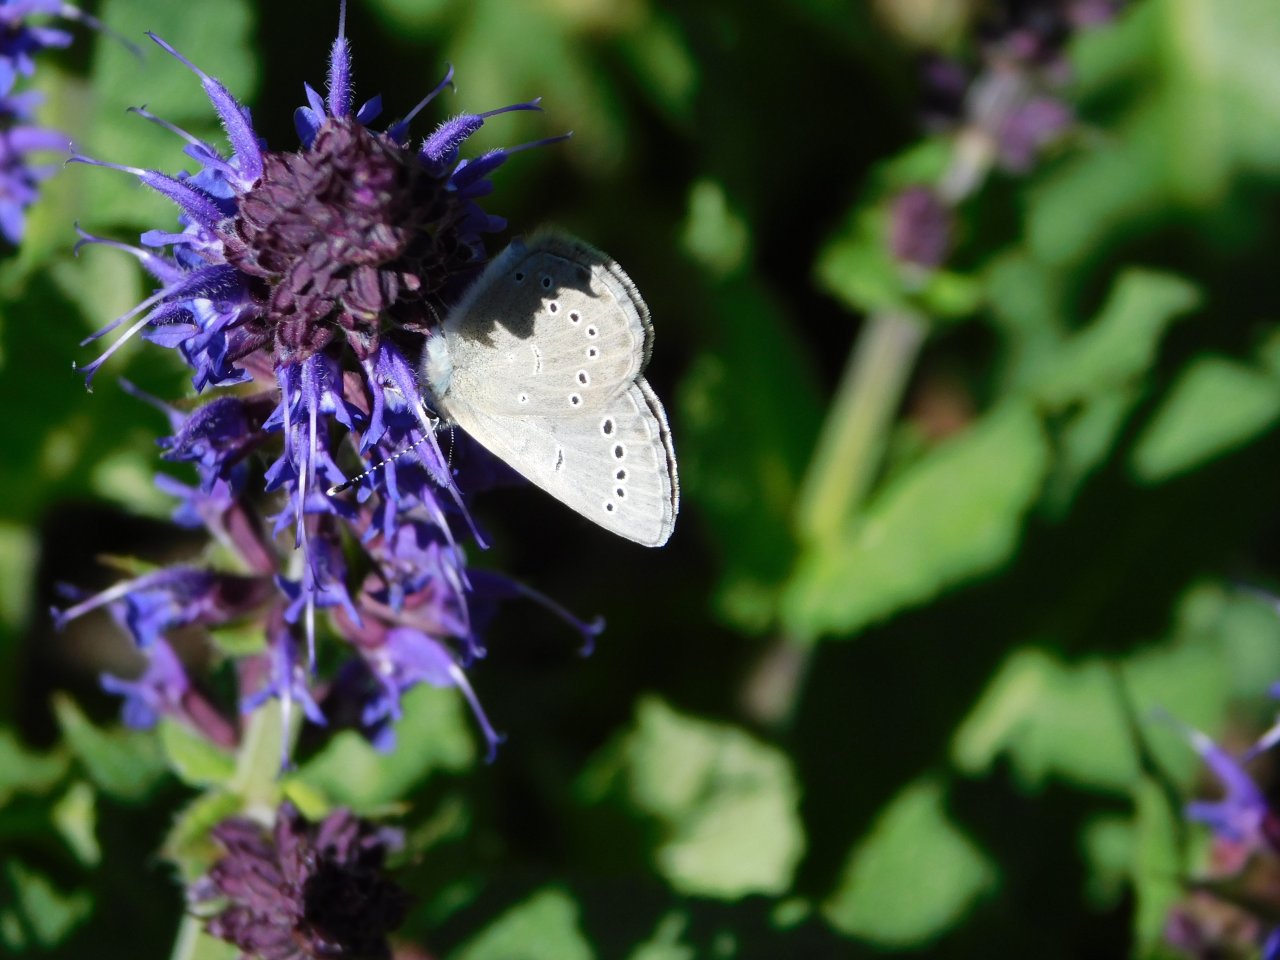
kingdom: Animalia
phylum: Arthropoda
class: Insecta
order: Lepidoptera
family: Lycaenidae
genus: Glaucopsyche
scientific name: Glaucopsyche lygdamus
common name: Silvery Blue
